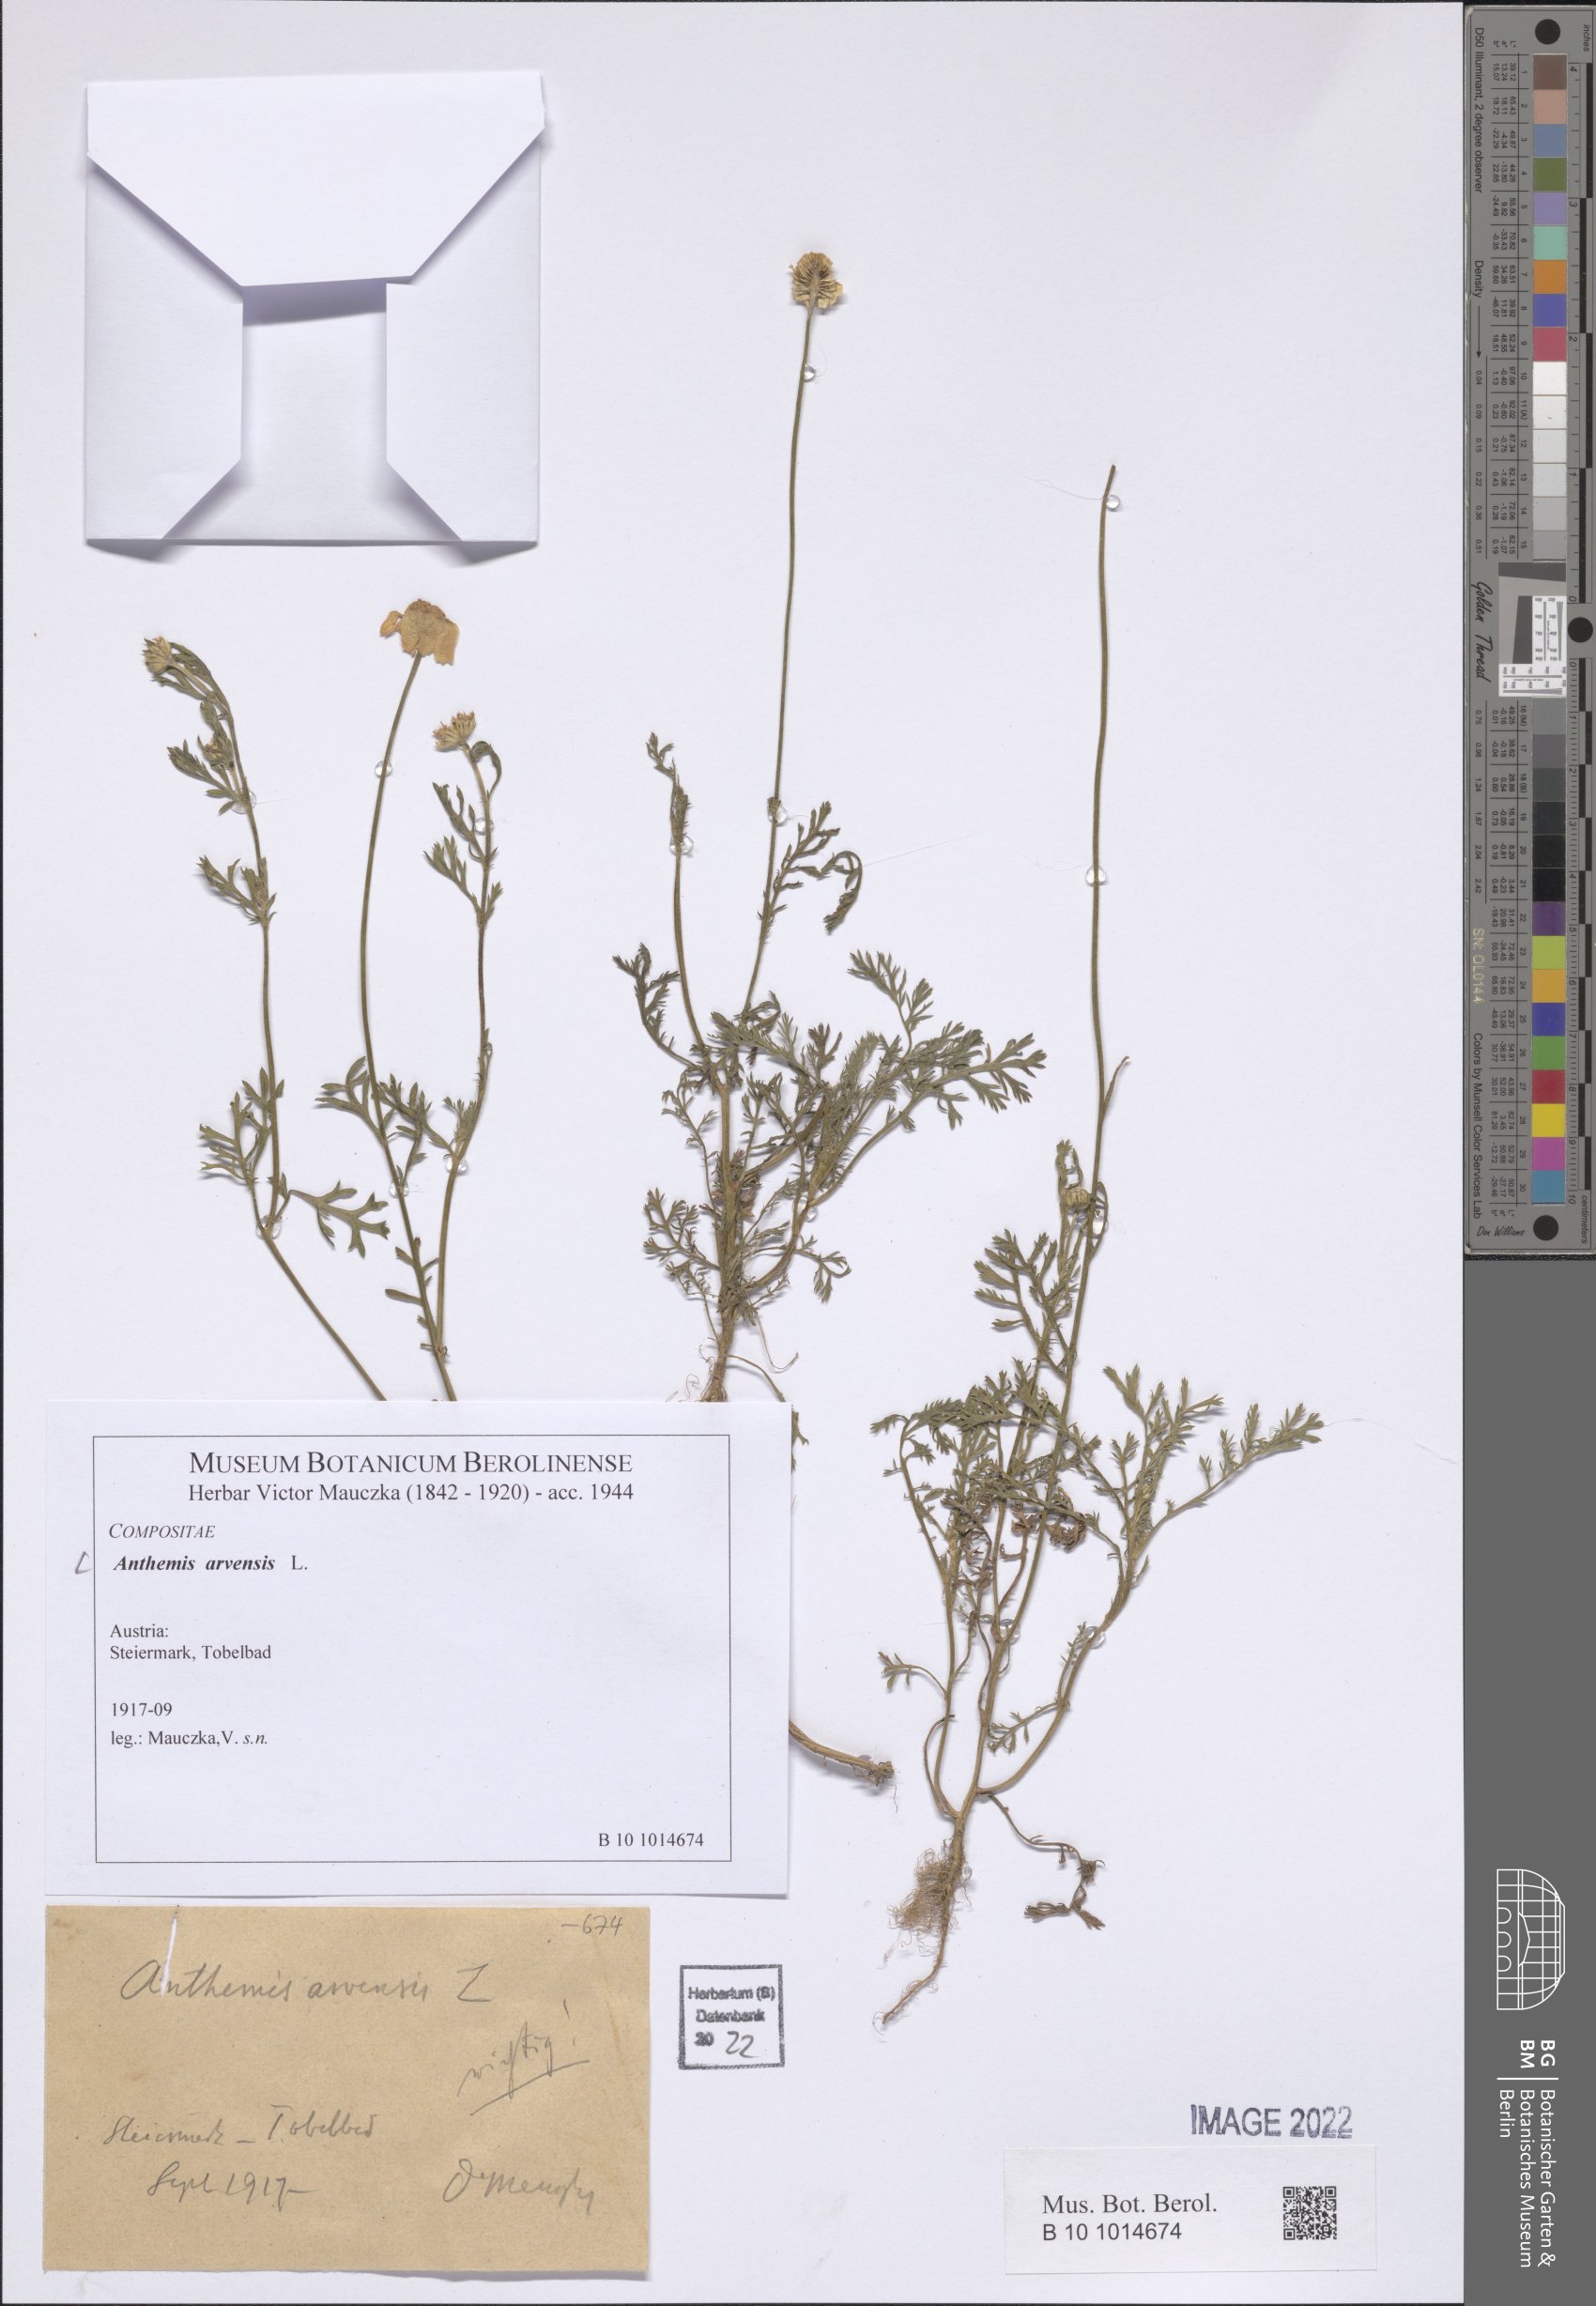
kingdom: Plantae
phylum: Tracheophyta
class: Magnoliopsida
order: Asterales
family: Asteraceae
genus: Anthemis
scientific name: Anthemis arvensis
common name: Corn chamomile
